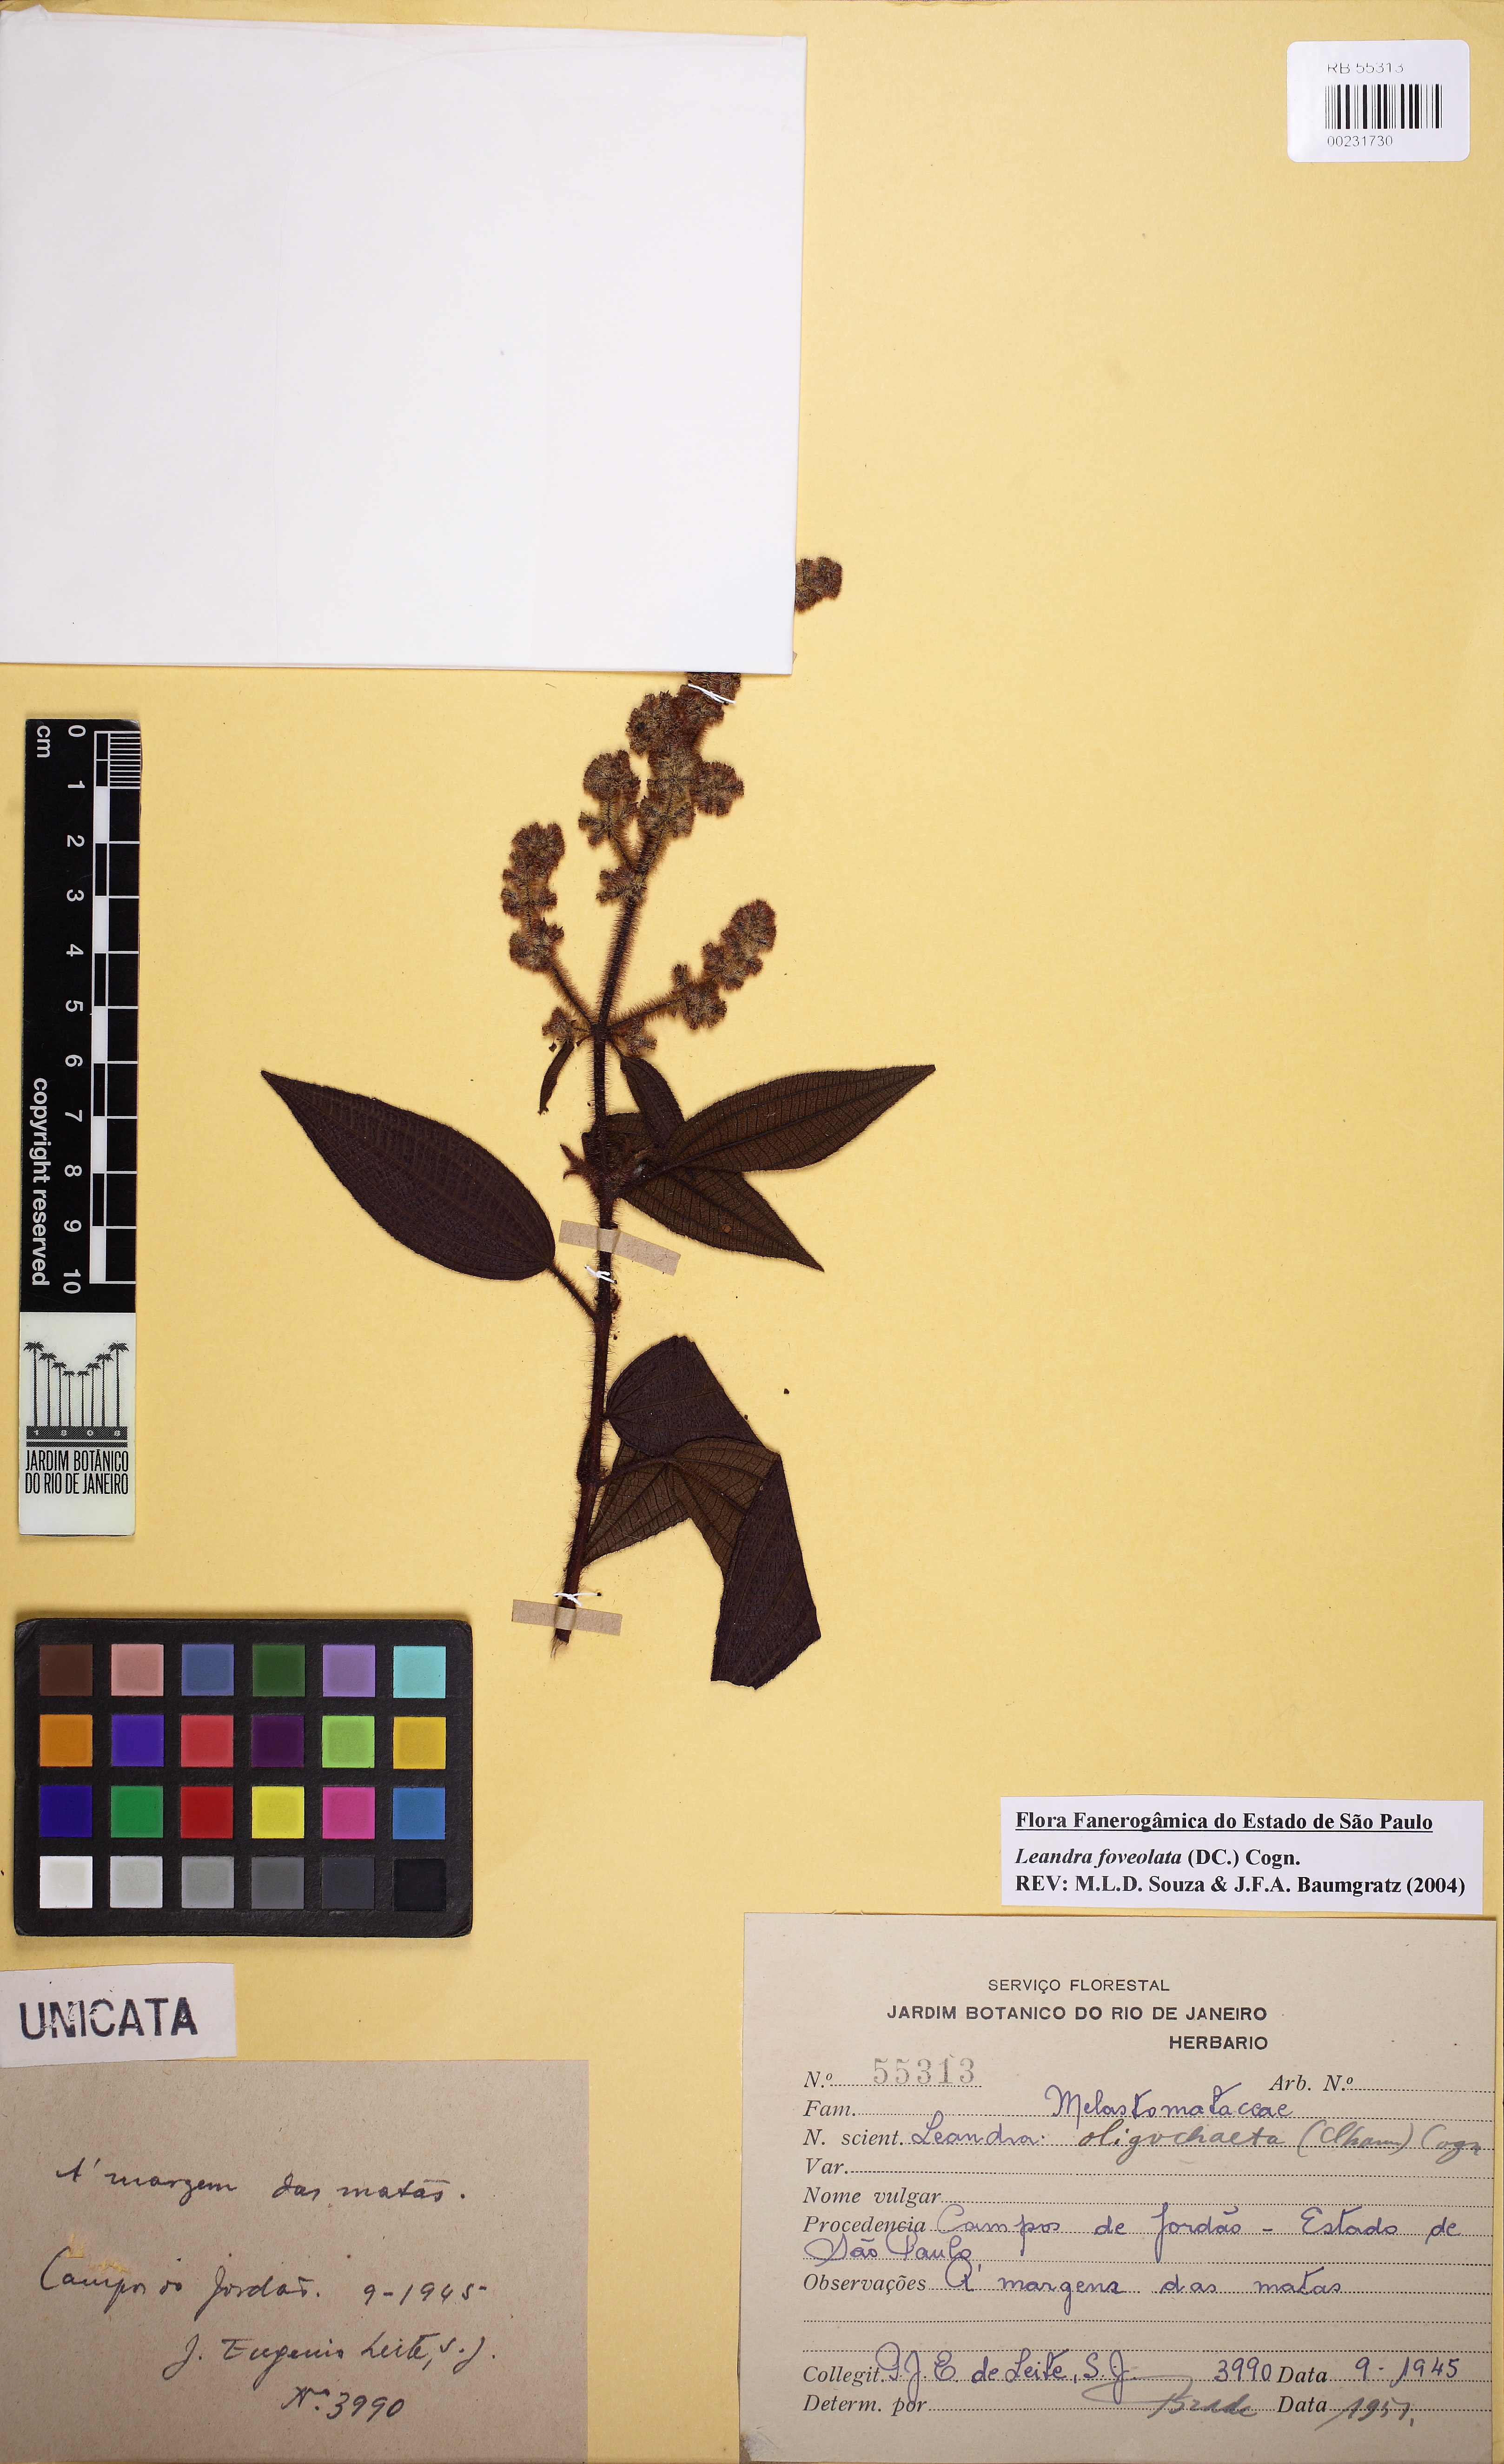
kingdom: Plantae
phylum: Tracheophyta
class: Magnoliopsida
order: Myrtales
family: Melastomataceae
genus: Miconia
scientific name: Miconia oligochaeta
